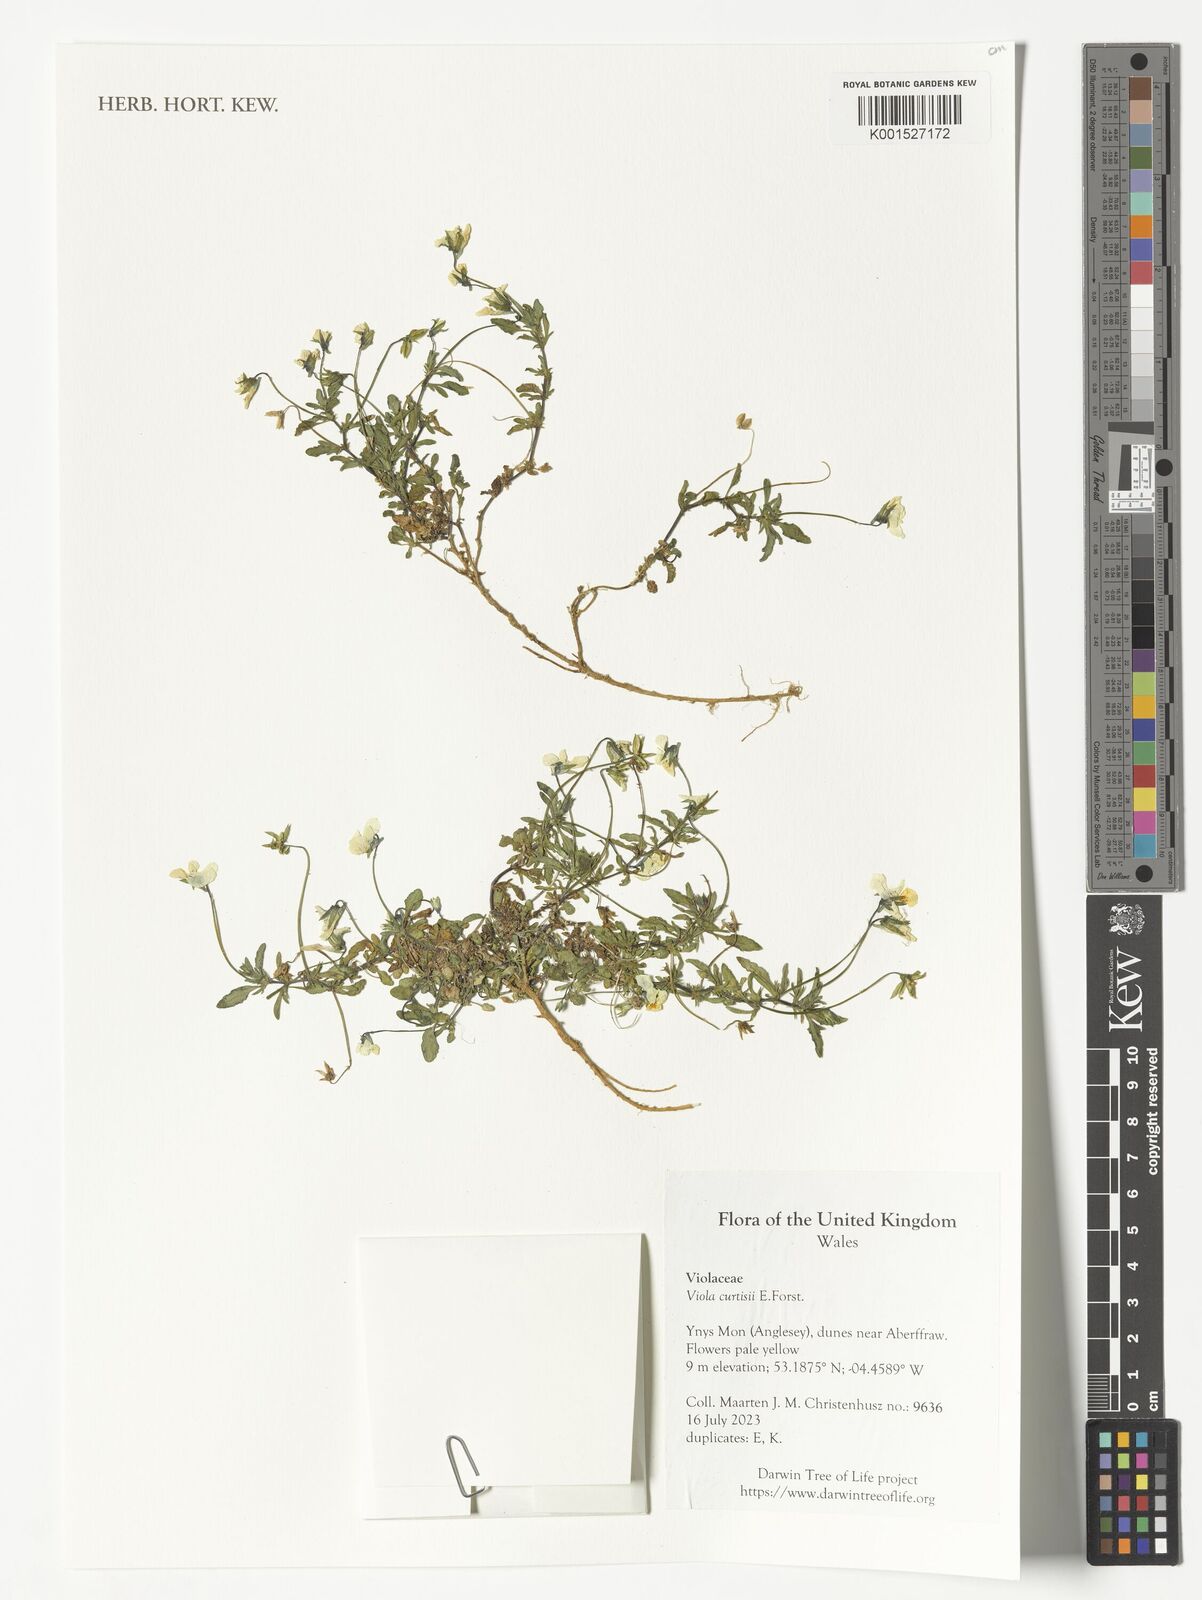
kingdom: Plantae
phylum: Tracheophyta
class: Magnoliopsida
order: Malpighiales
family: Violaceae
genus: Viola
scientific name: Viola tricolor
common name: Pansy
